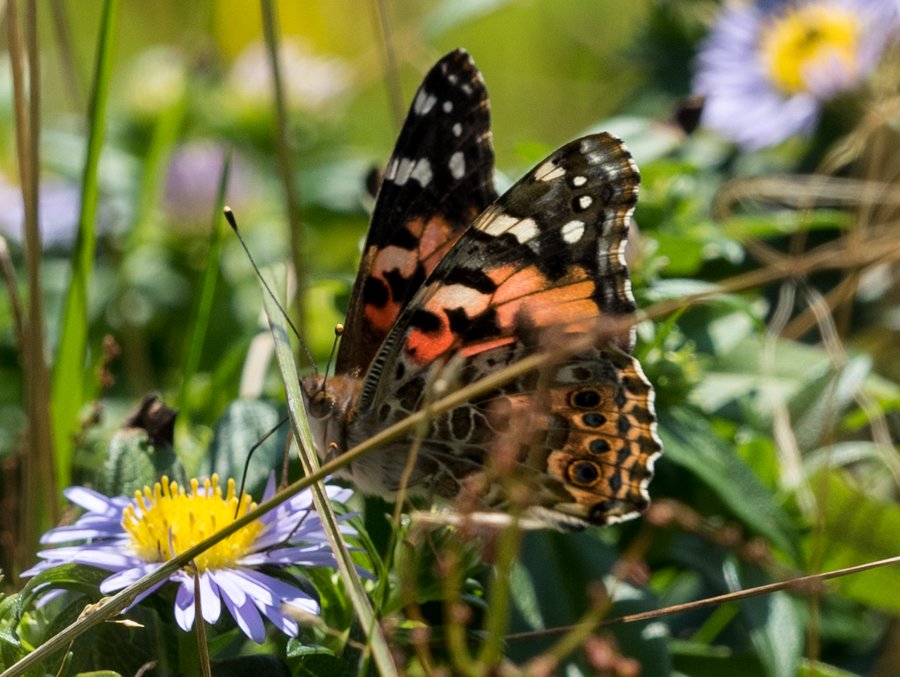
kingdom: Animalia
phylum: Arthropoda
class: Insecta
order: Lepidoptera
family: Nymphalidae
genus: Vanessa
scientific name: Vanessa cardui
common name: Painted Lady
